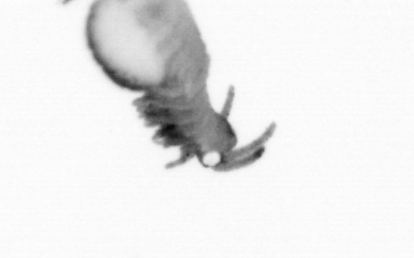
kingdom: Animalia
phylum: Annelida
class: Polychaeta
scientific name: Polychaeta
